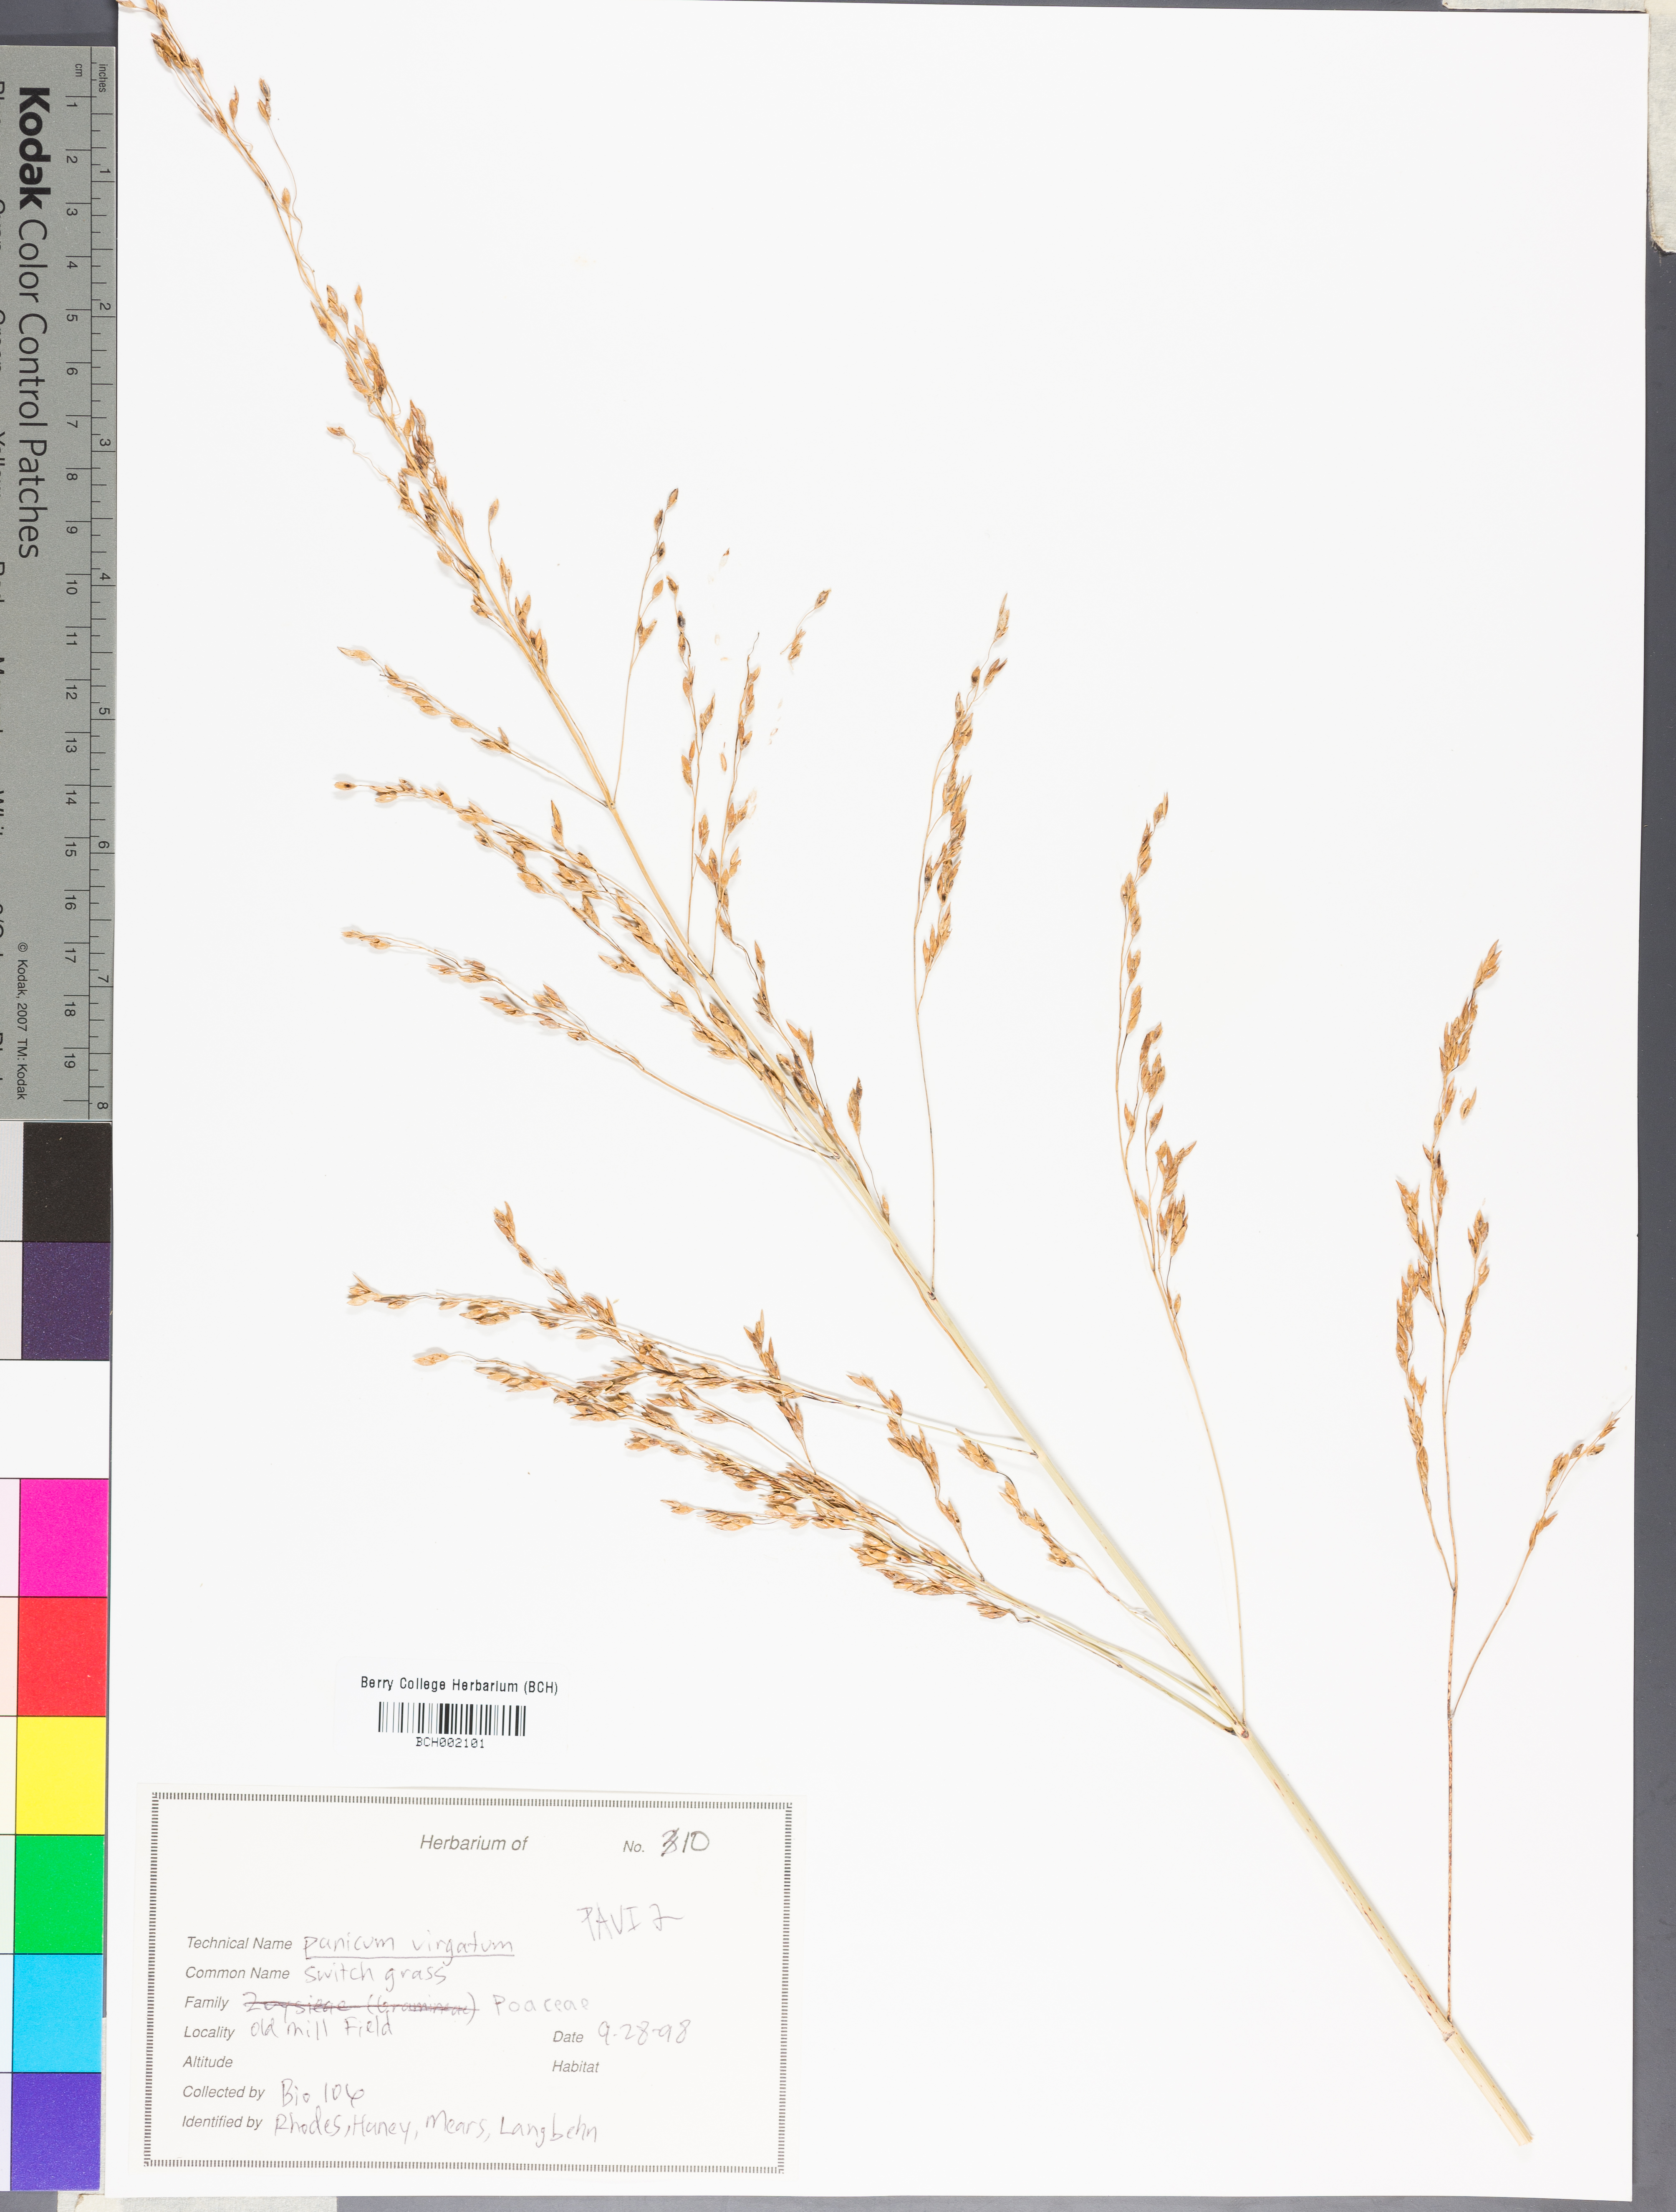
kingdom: Plantae
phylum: Tracheophyta
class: Liliopsida
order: Poales
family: Poaceae
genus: Panicum
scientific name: Panicum virgatum
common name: Switchgrass
